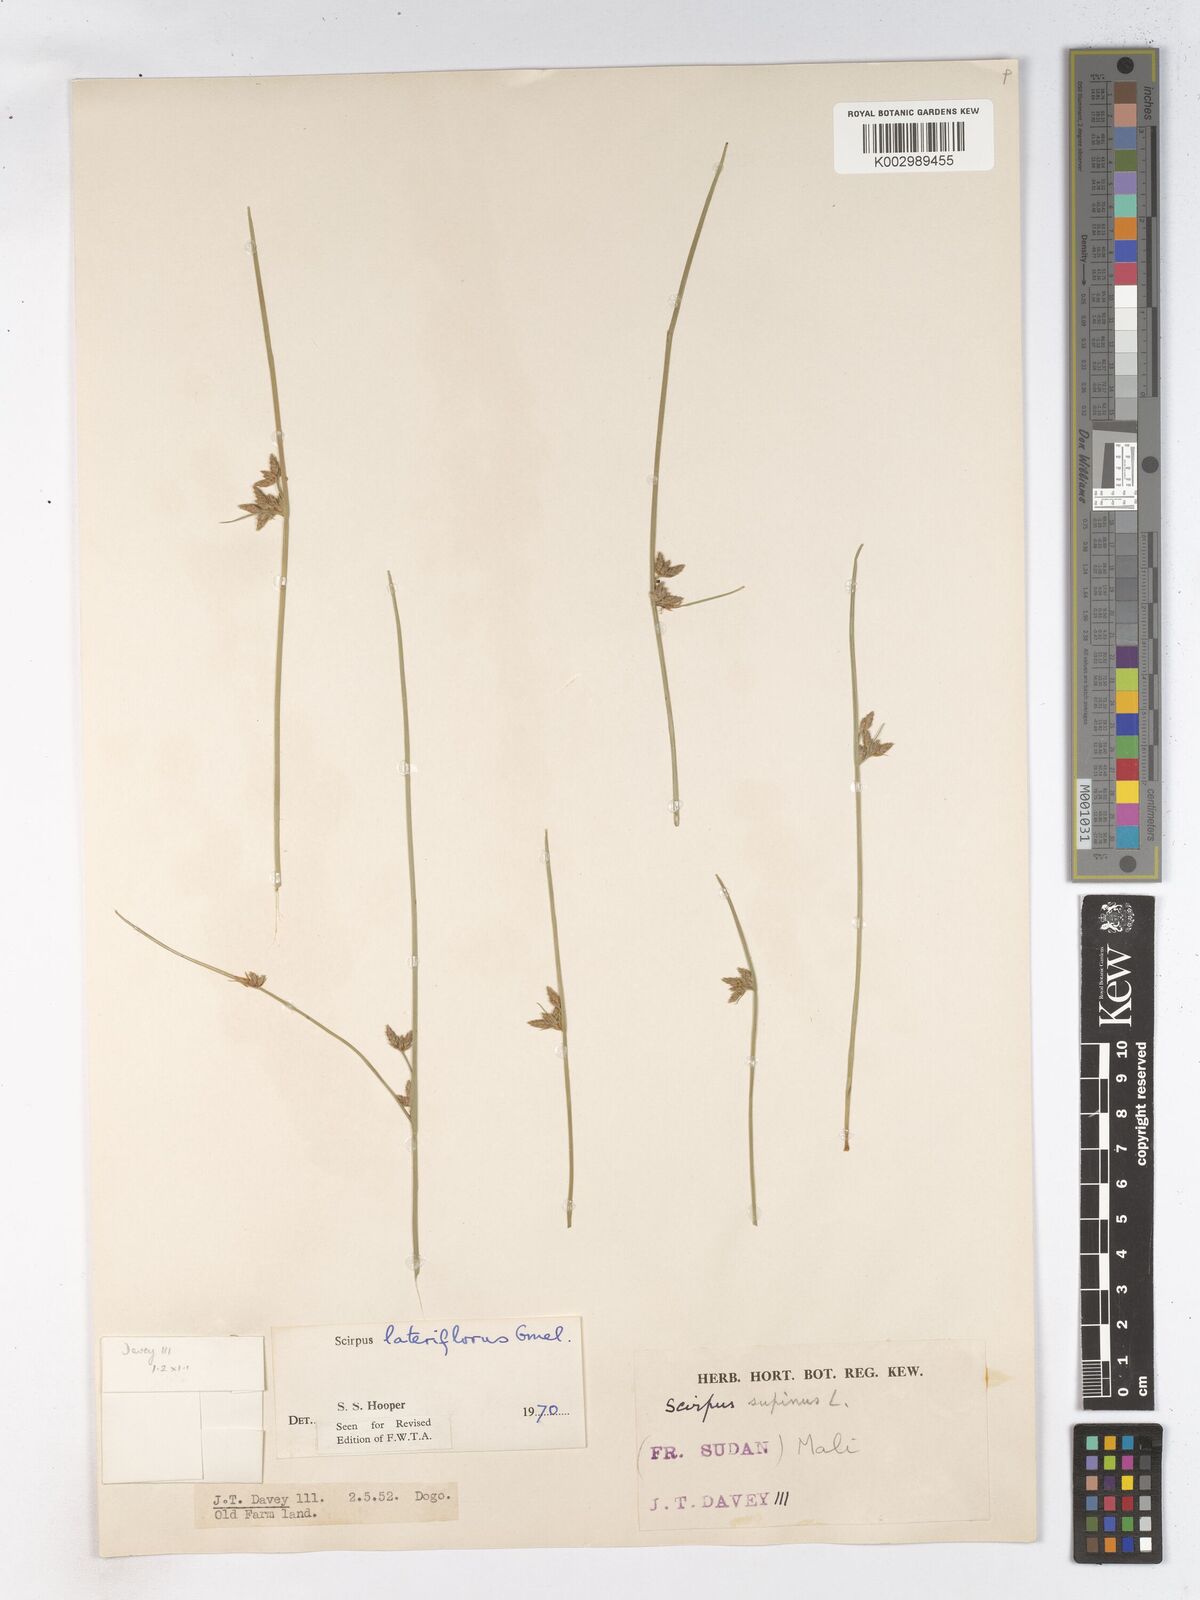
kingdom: Plantae
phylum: Tracheophyta
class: Liliopsida
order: Poales
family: Cyperaceae
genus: Schoenoplectiella
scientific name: Schoenoplectiella lateriflora
